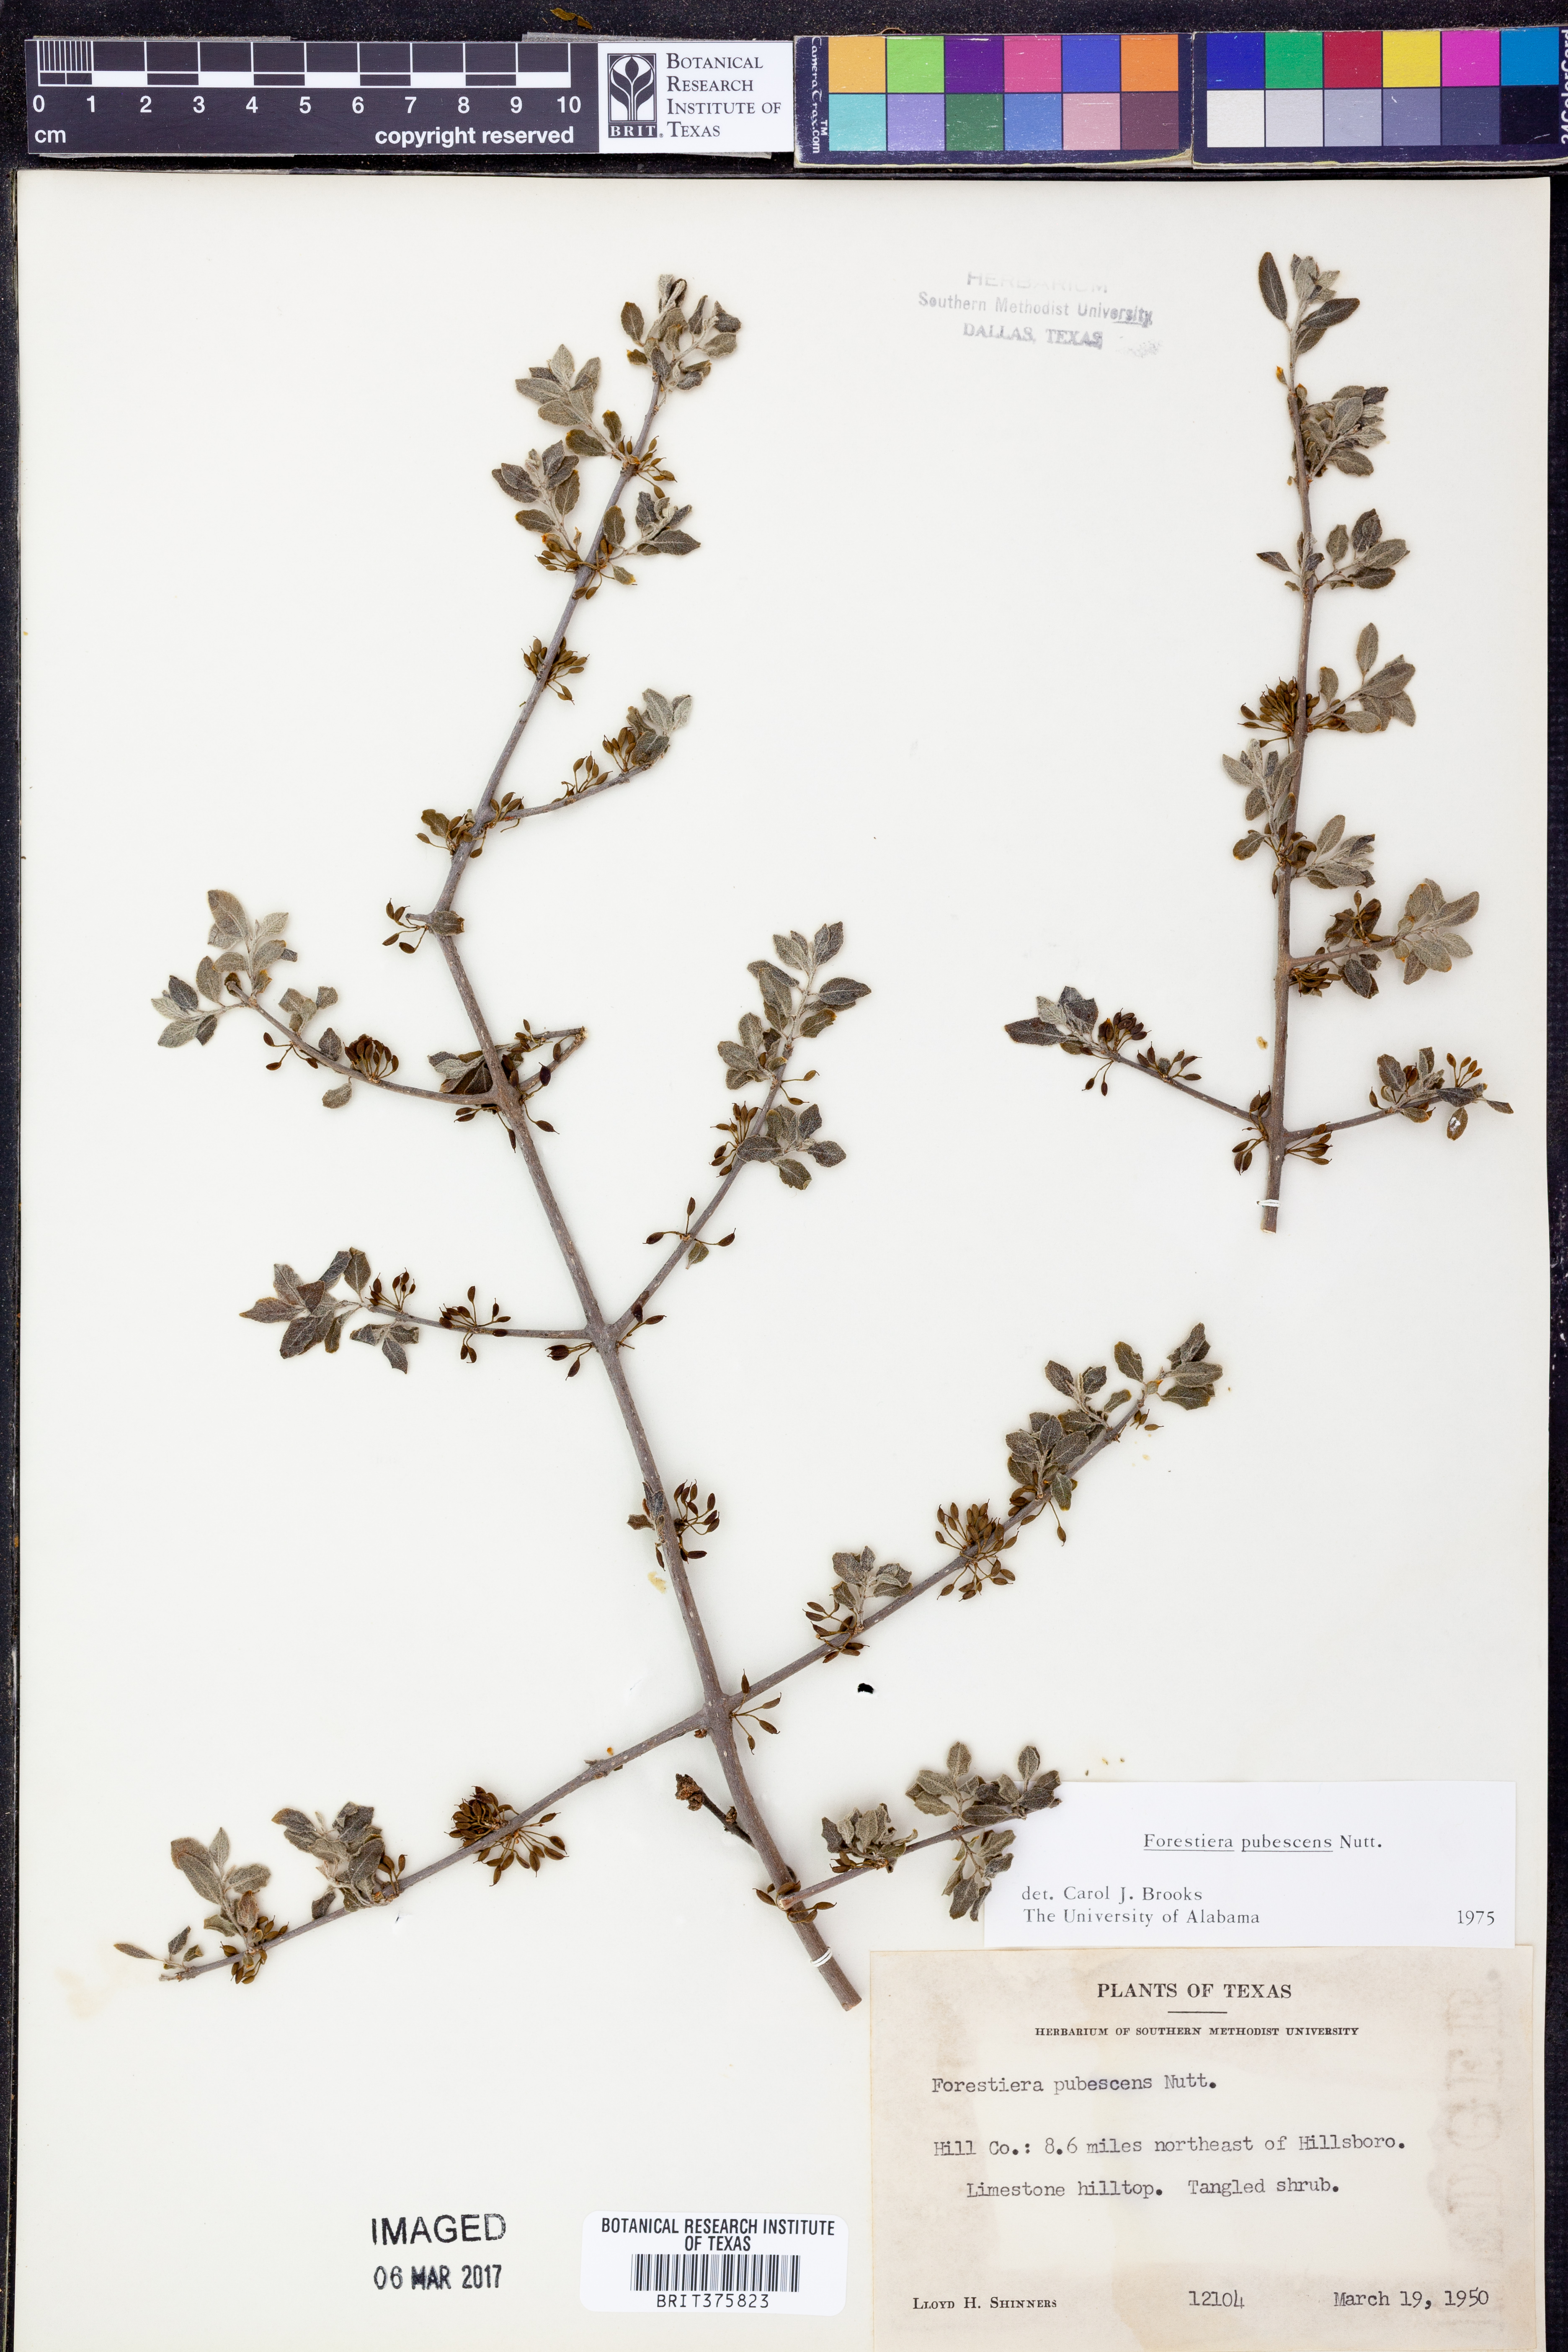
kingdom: Plantae
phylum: Tracheophyta
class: Magnoliopsida
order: Lamiales
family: Oleaceae
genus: Forestiera
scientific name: Forestiera pubescens
